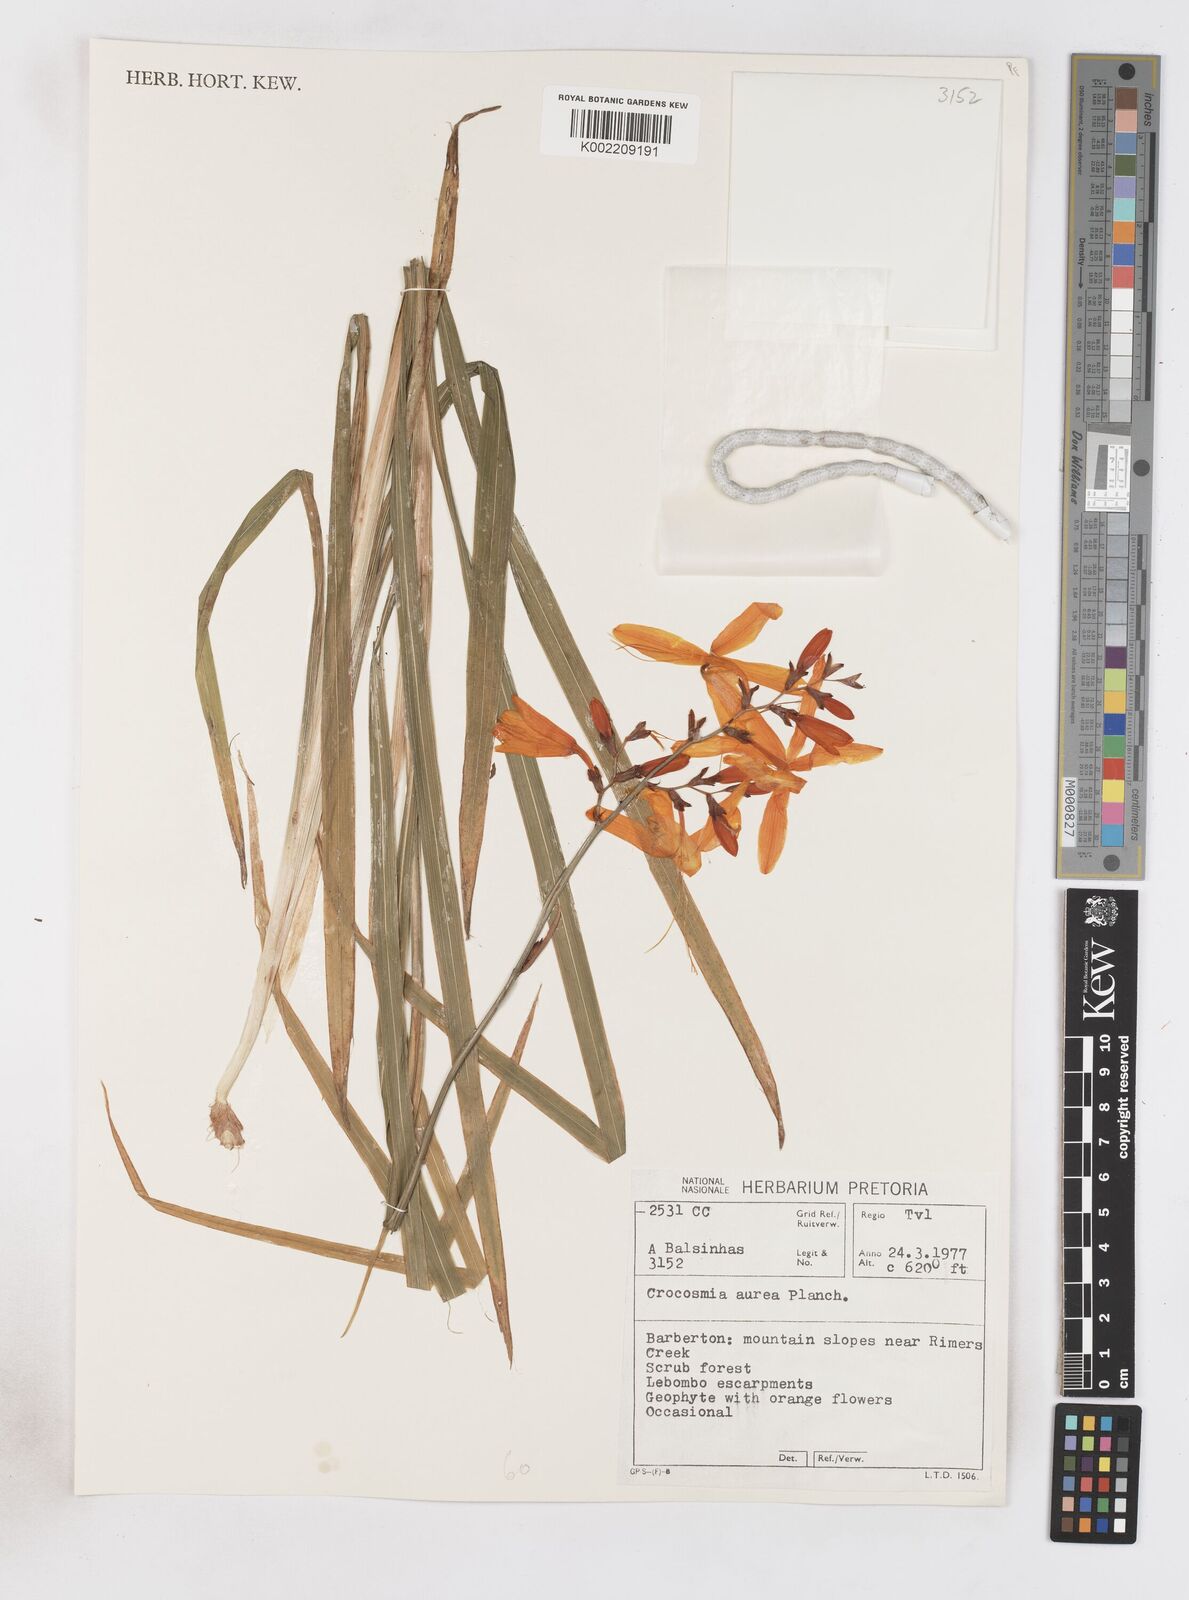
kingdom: Plantae
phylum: Tracheophyta
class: Liliopsida
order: Asparagales
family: Iridaceae
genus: Crocosmia
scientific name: Crocosmia aurea
